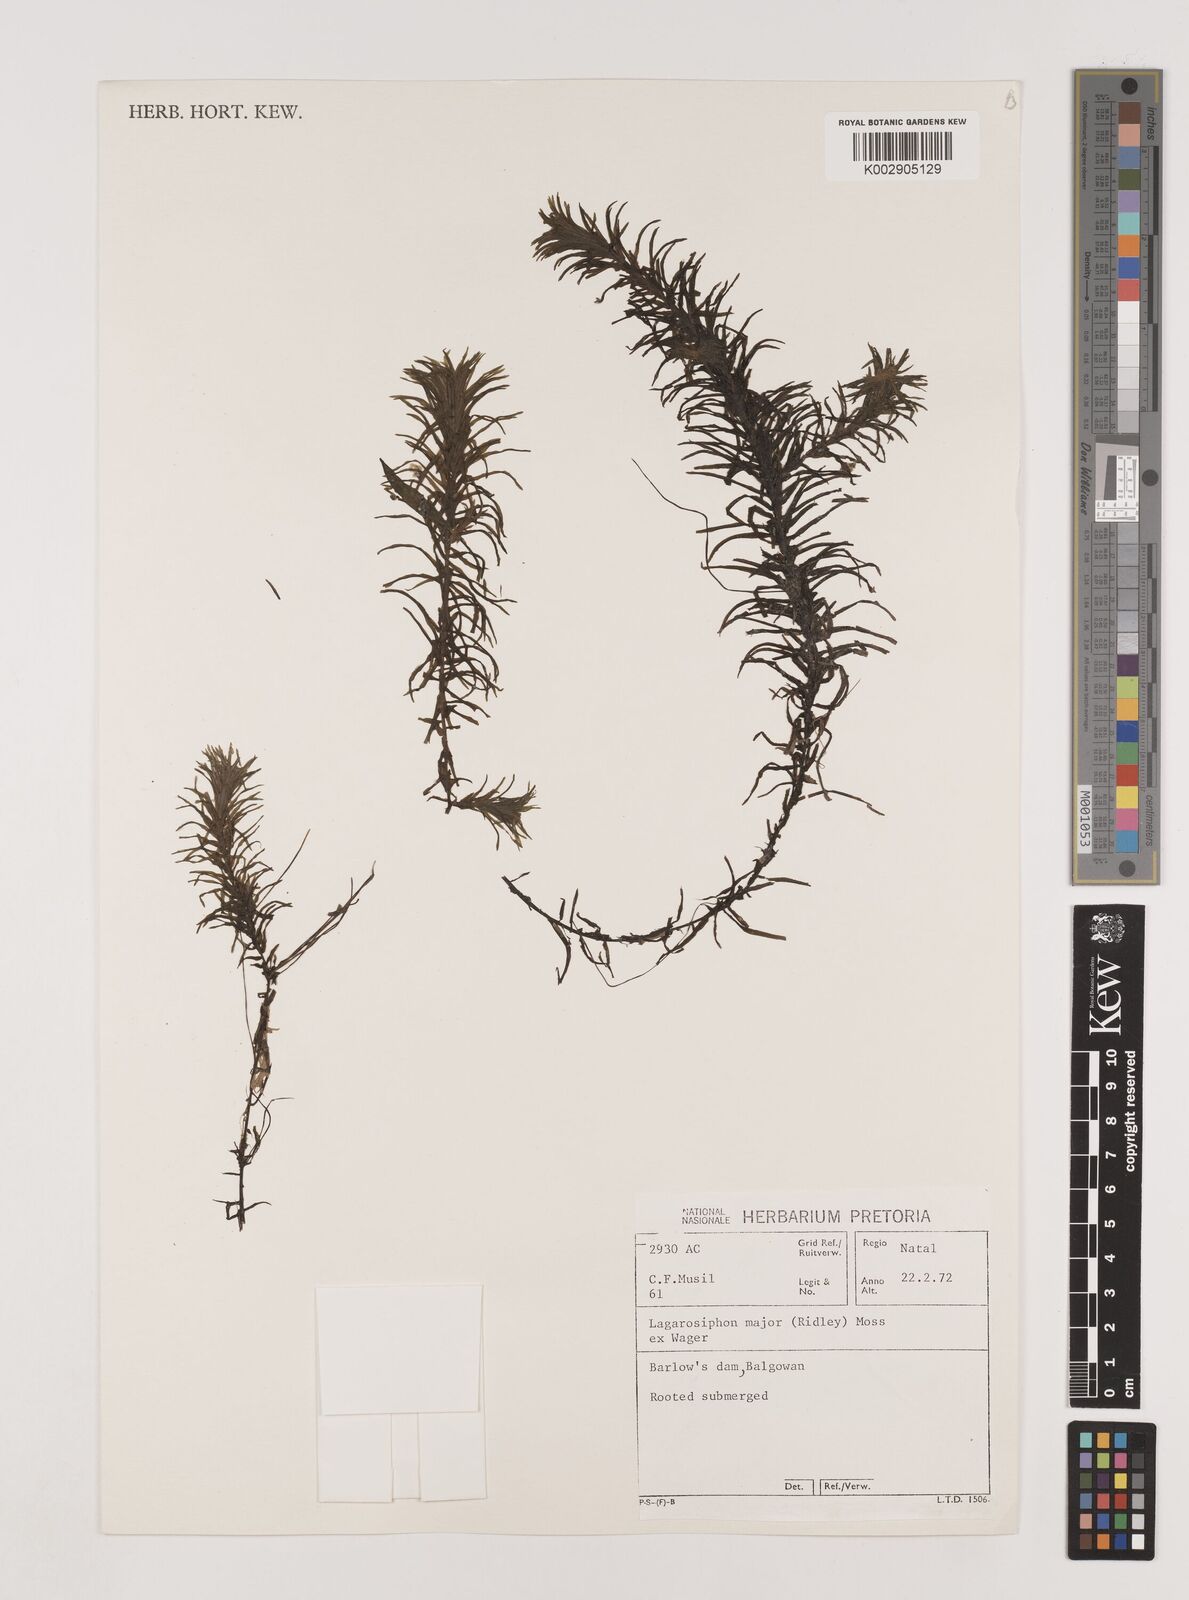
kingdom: Plantae
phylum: Tracheophyta
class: Liliopsida
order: Alismatales
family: Hydrocharitaceae
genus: Lagarosiphon
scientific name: Lagarosiphon major
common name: Curly waterweed
